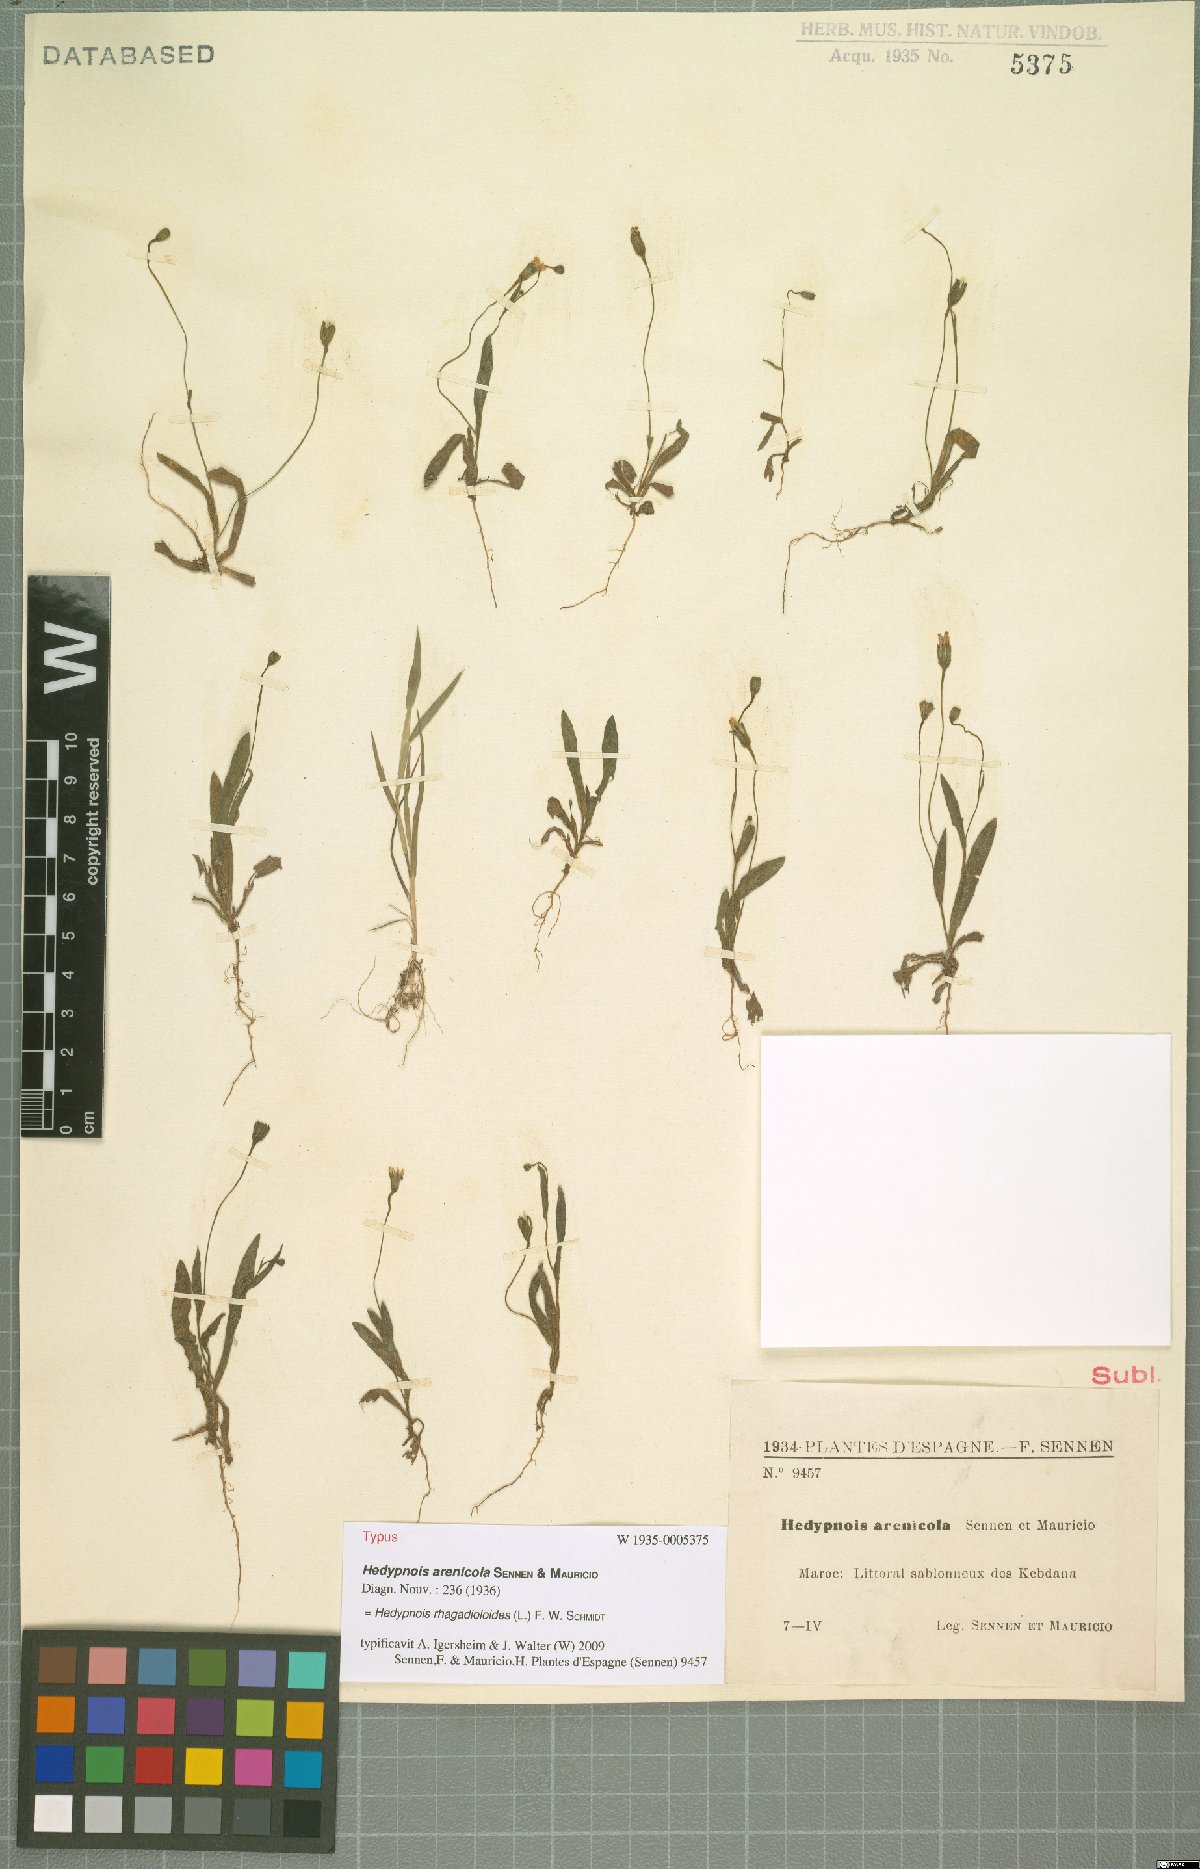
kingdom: Plantae
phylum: Tracheophyta
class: Magnoliopsida
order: Asterales
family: Asteraceae
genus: Hedypnois
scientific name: Hedypnois rhagadioloides
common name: Cretan weed
